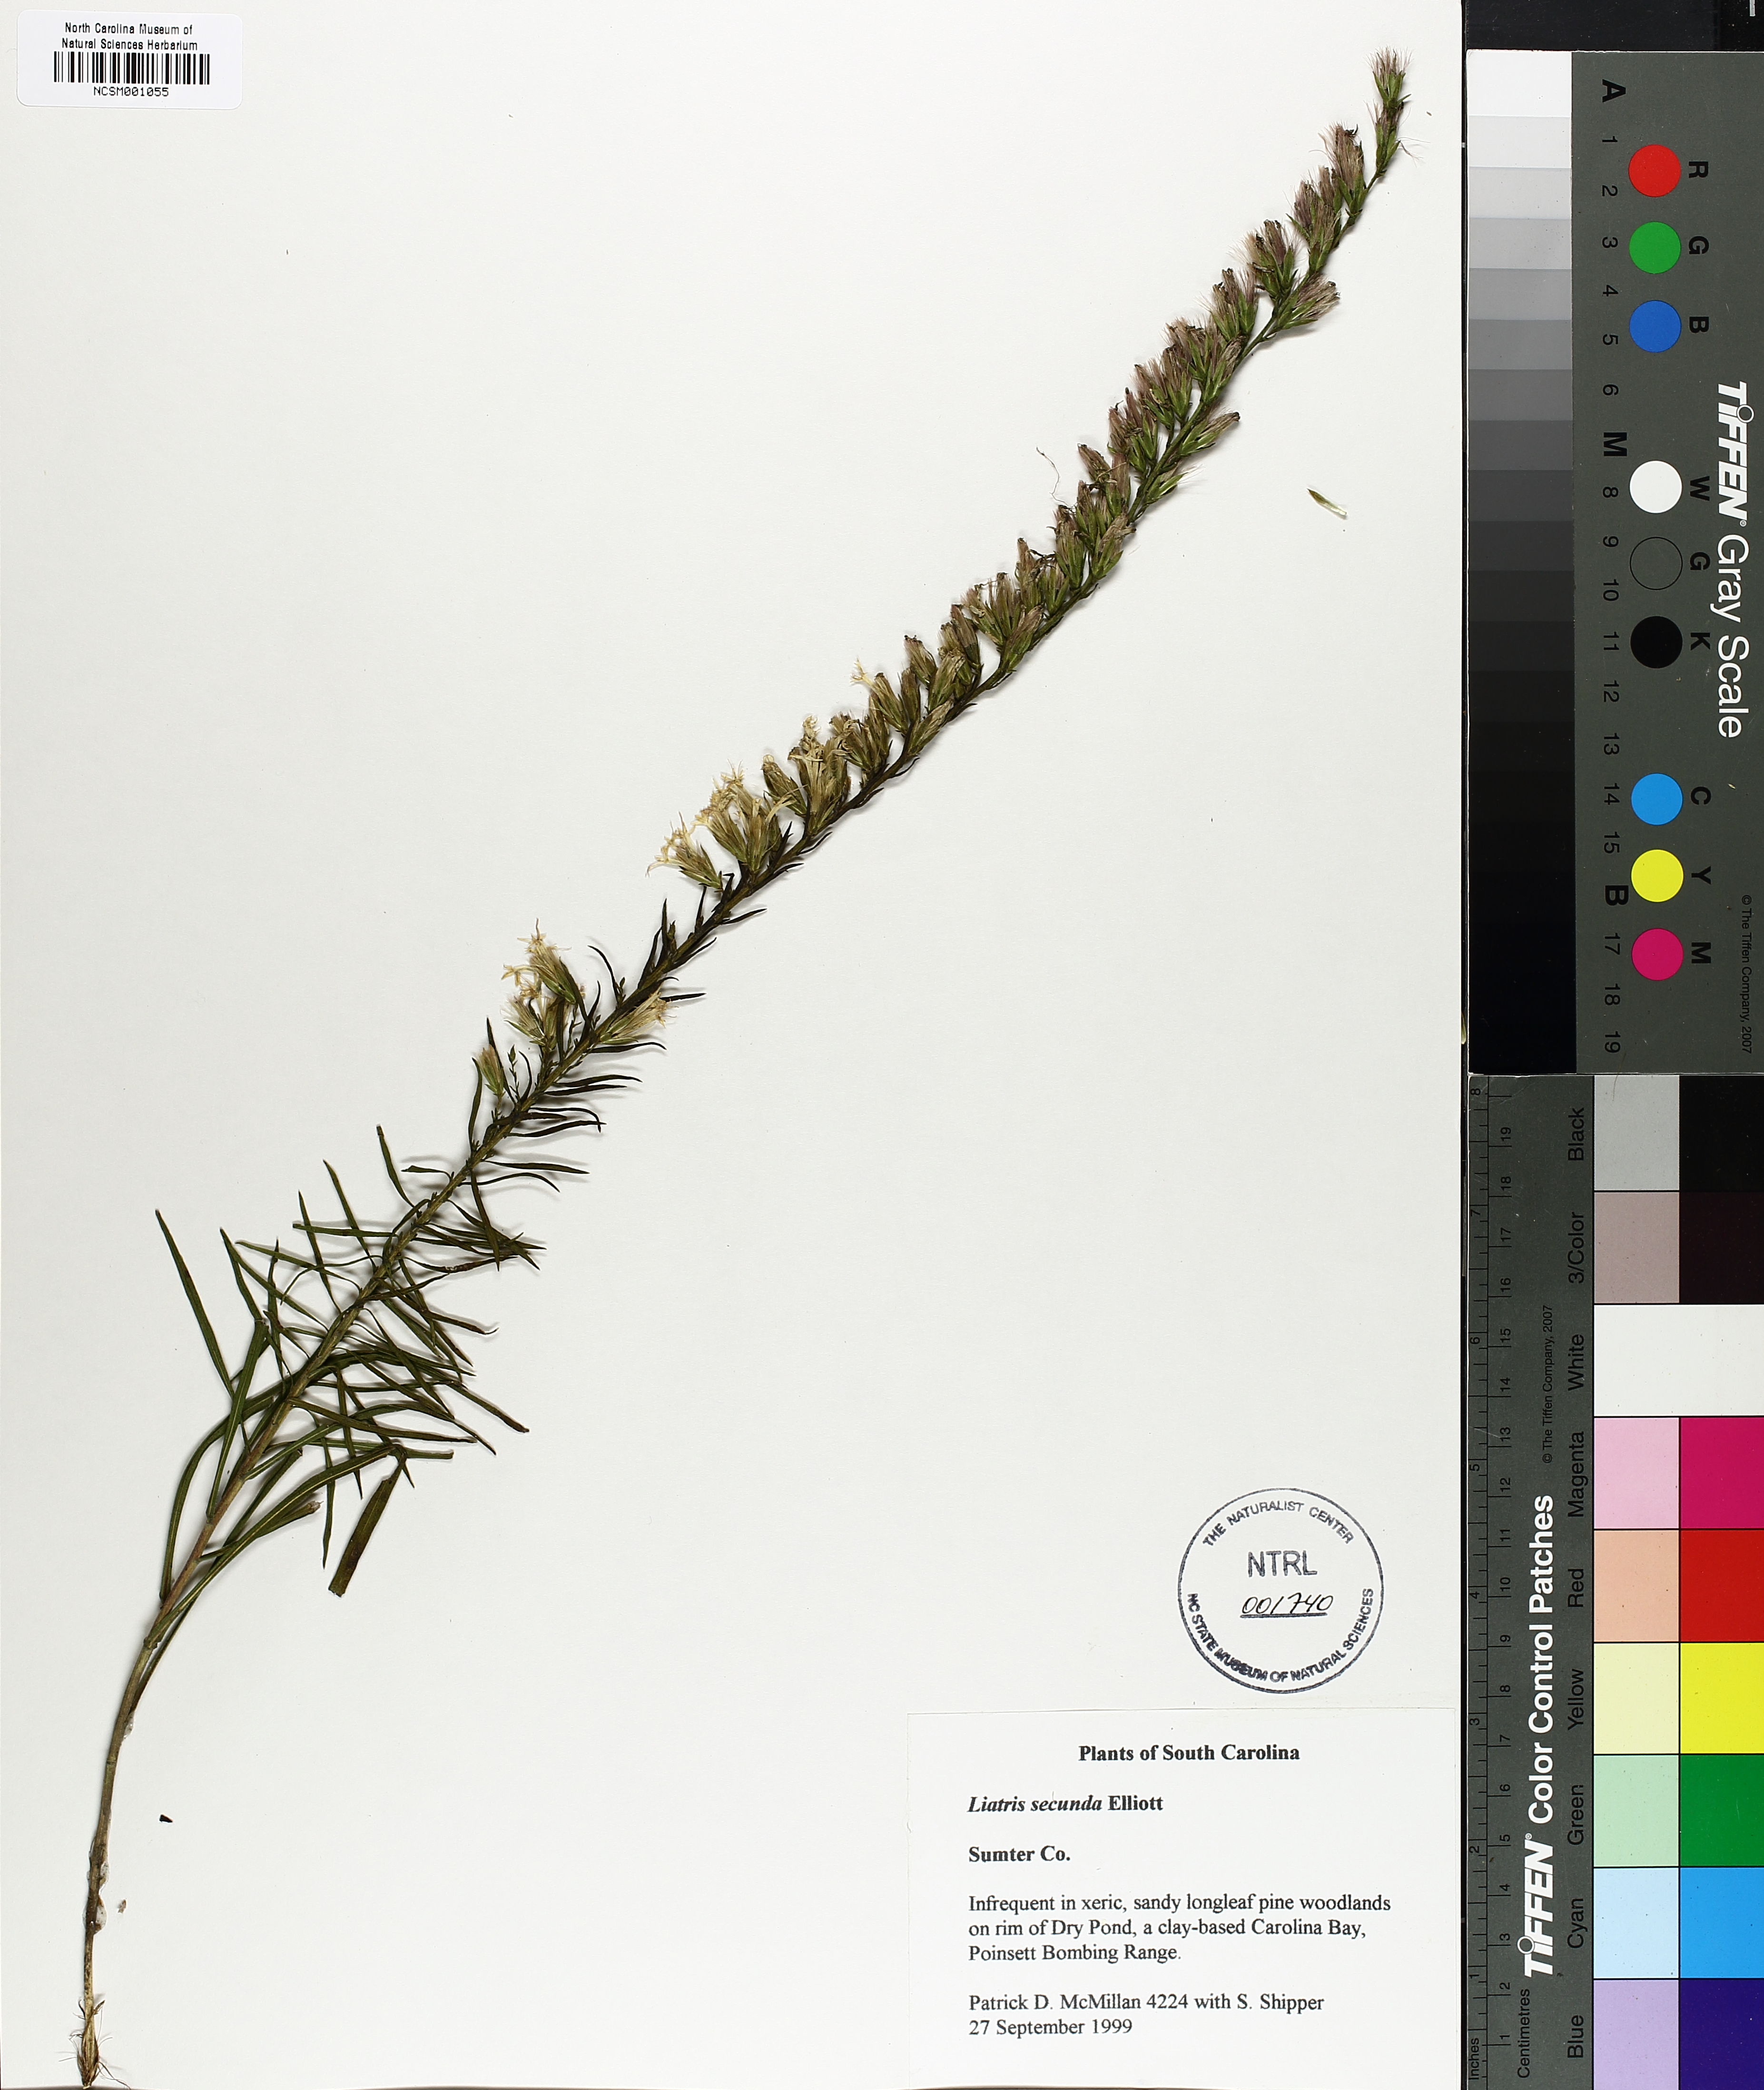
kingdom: Plantae
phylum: Tracheophyta
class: Magnoliopsida
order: Asterales
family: Asteraceae
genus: Liatris
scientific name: Liatris pauciflora
